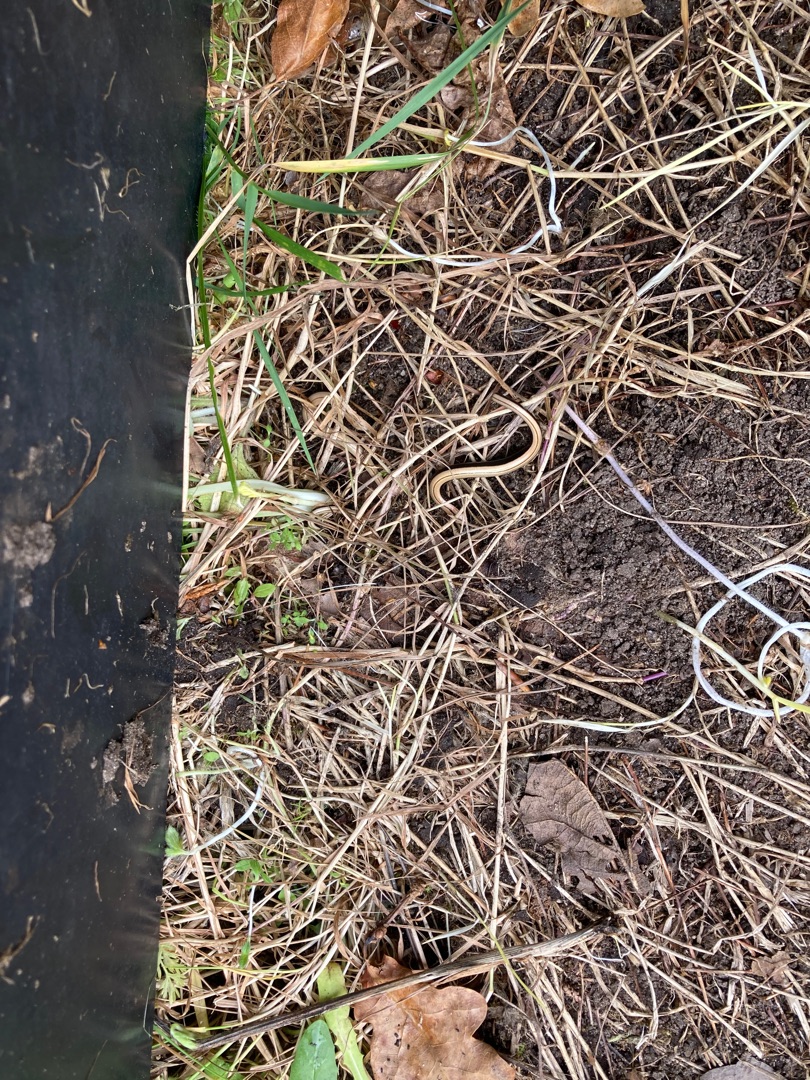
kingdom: Animalia
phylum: Chordata
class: Squamata
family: Anguidae
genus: Anguis
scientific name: Anguis fragilis
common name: Stålorm
